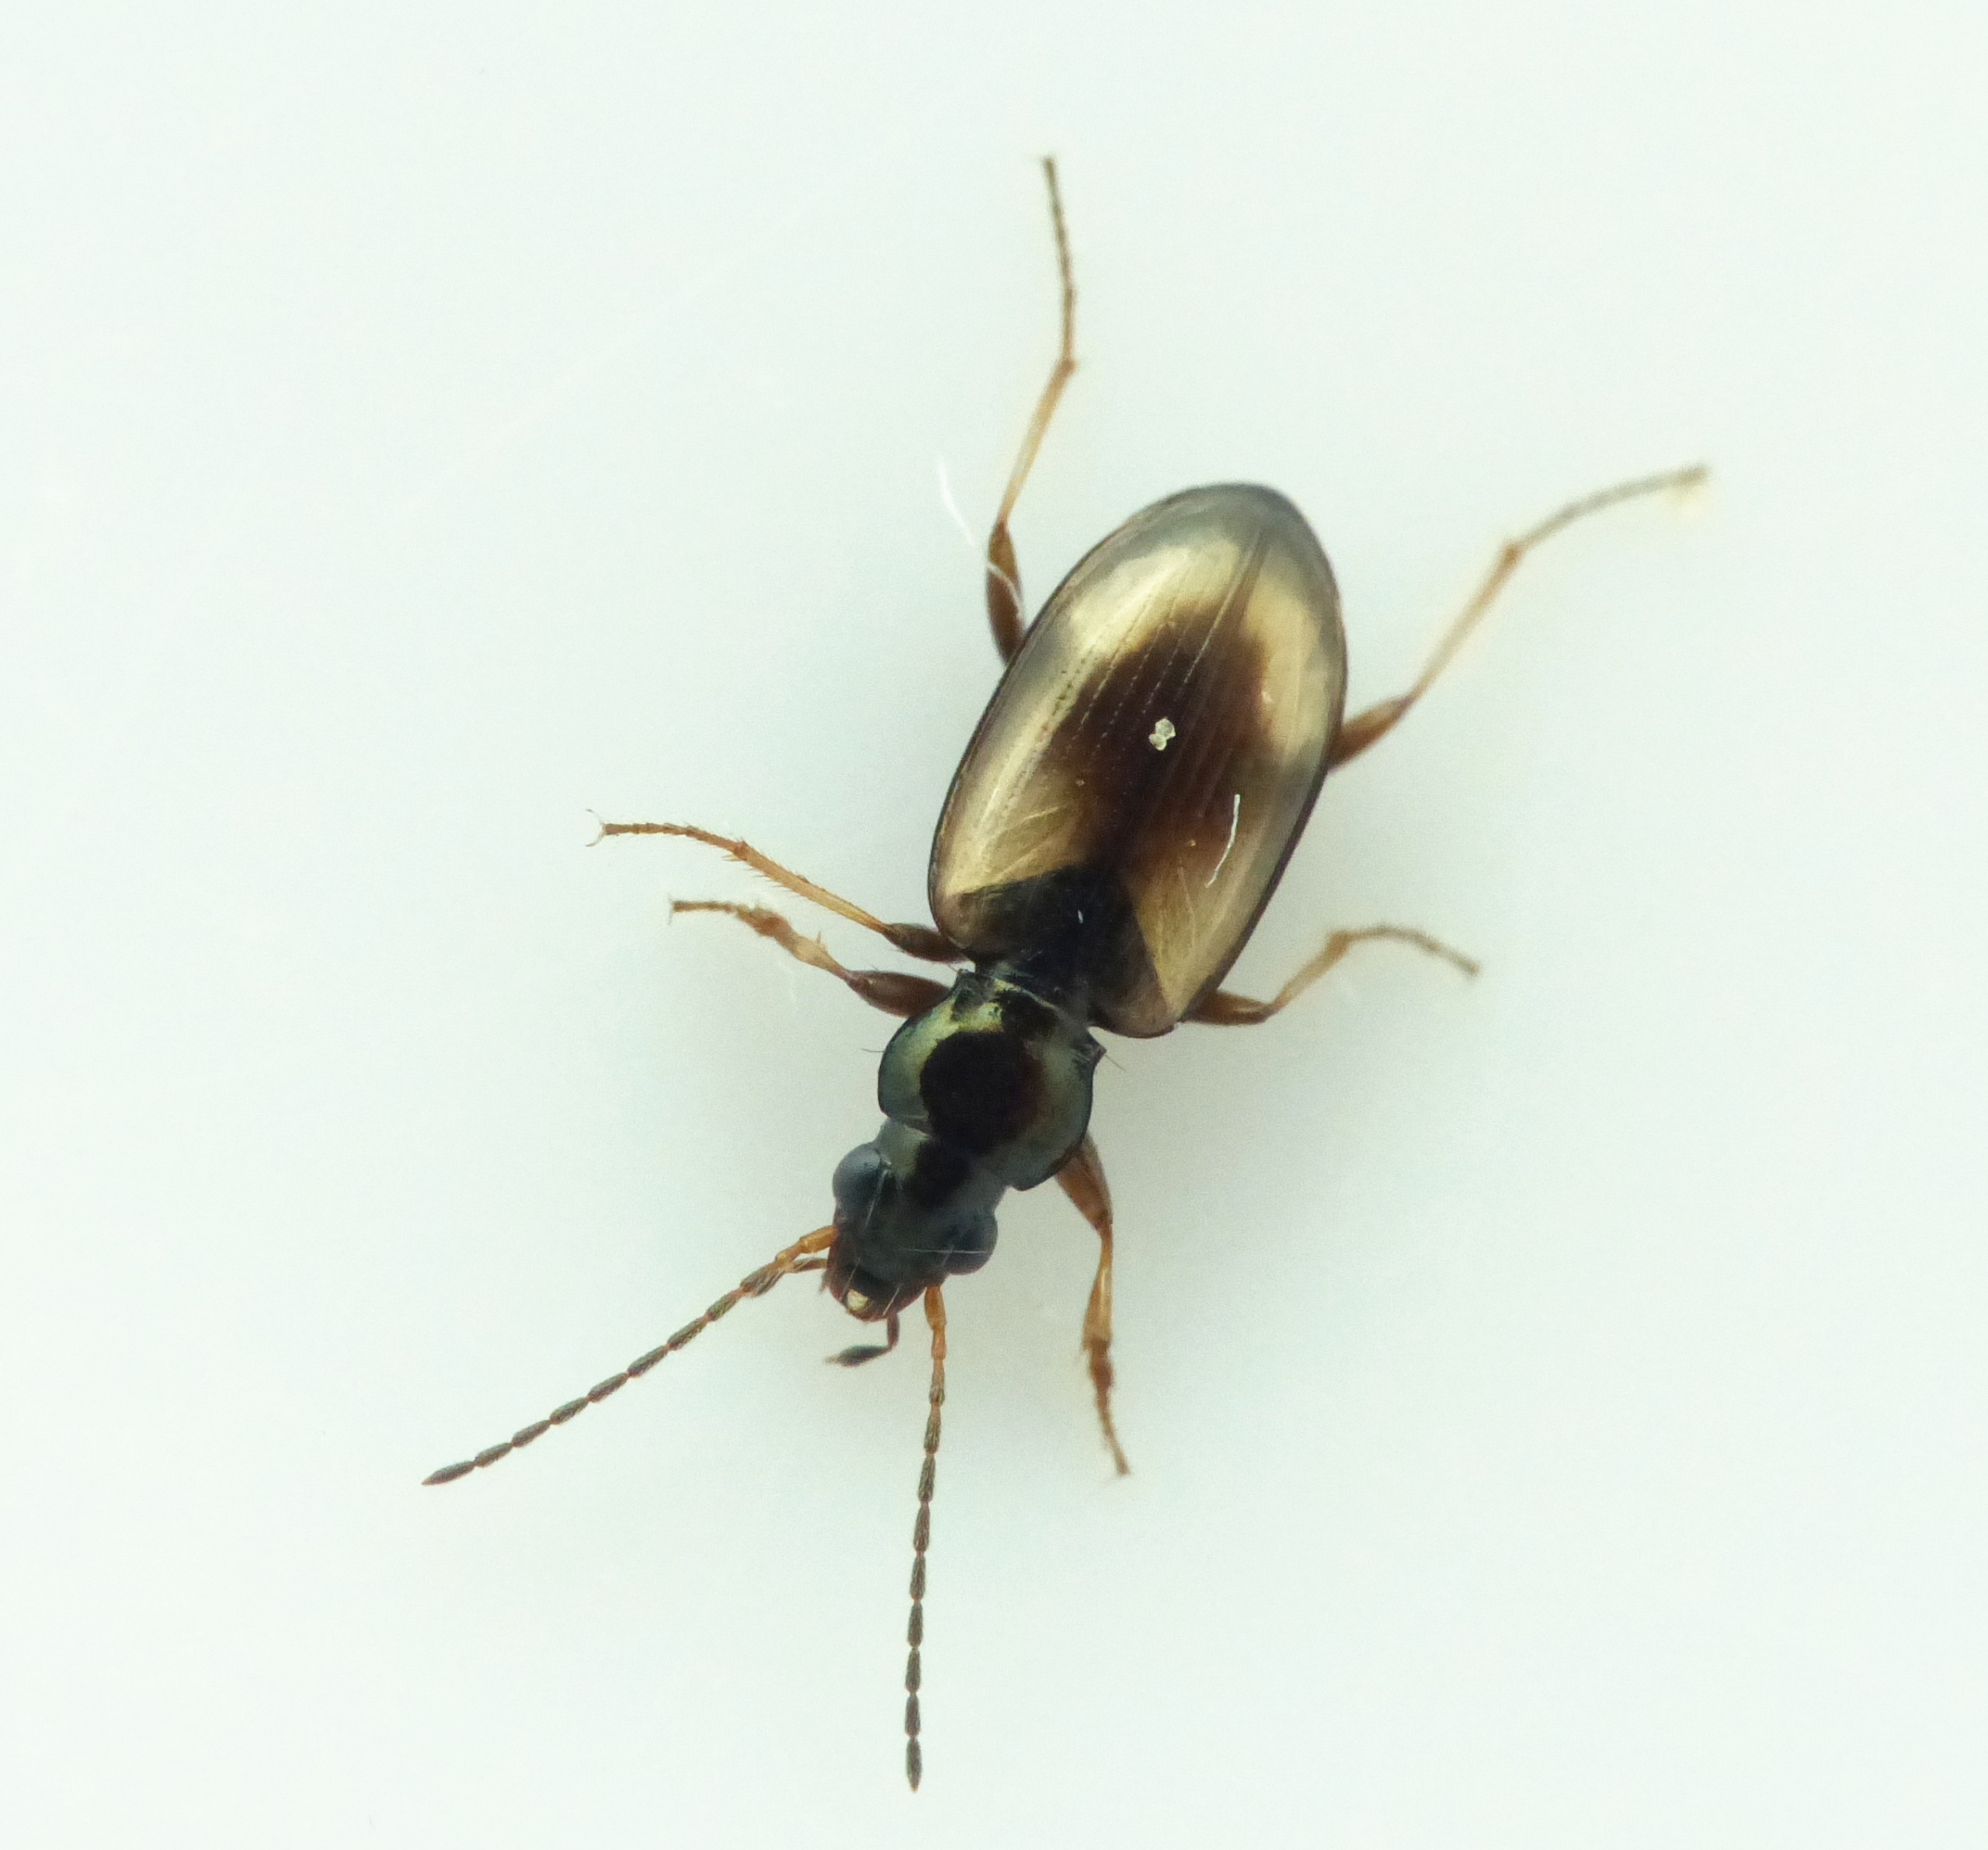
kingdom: Animalia
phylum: Arthropoda
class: Insecta
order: Coleoptera
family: Carabidae
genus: Bembidion
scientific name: Bembidion femoratum
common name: Mørklåret glansløber
